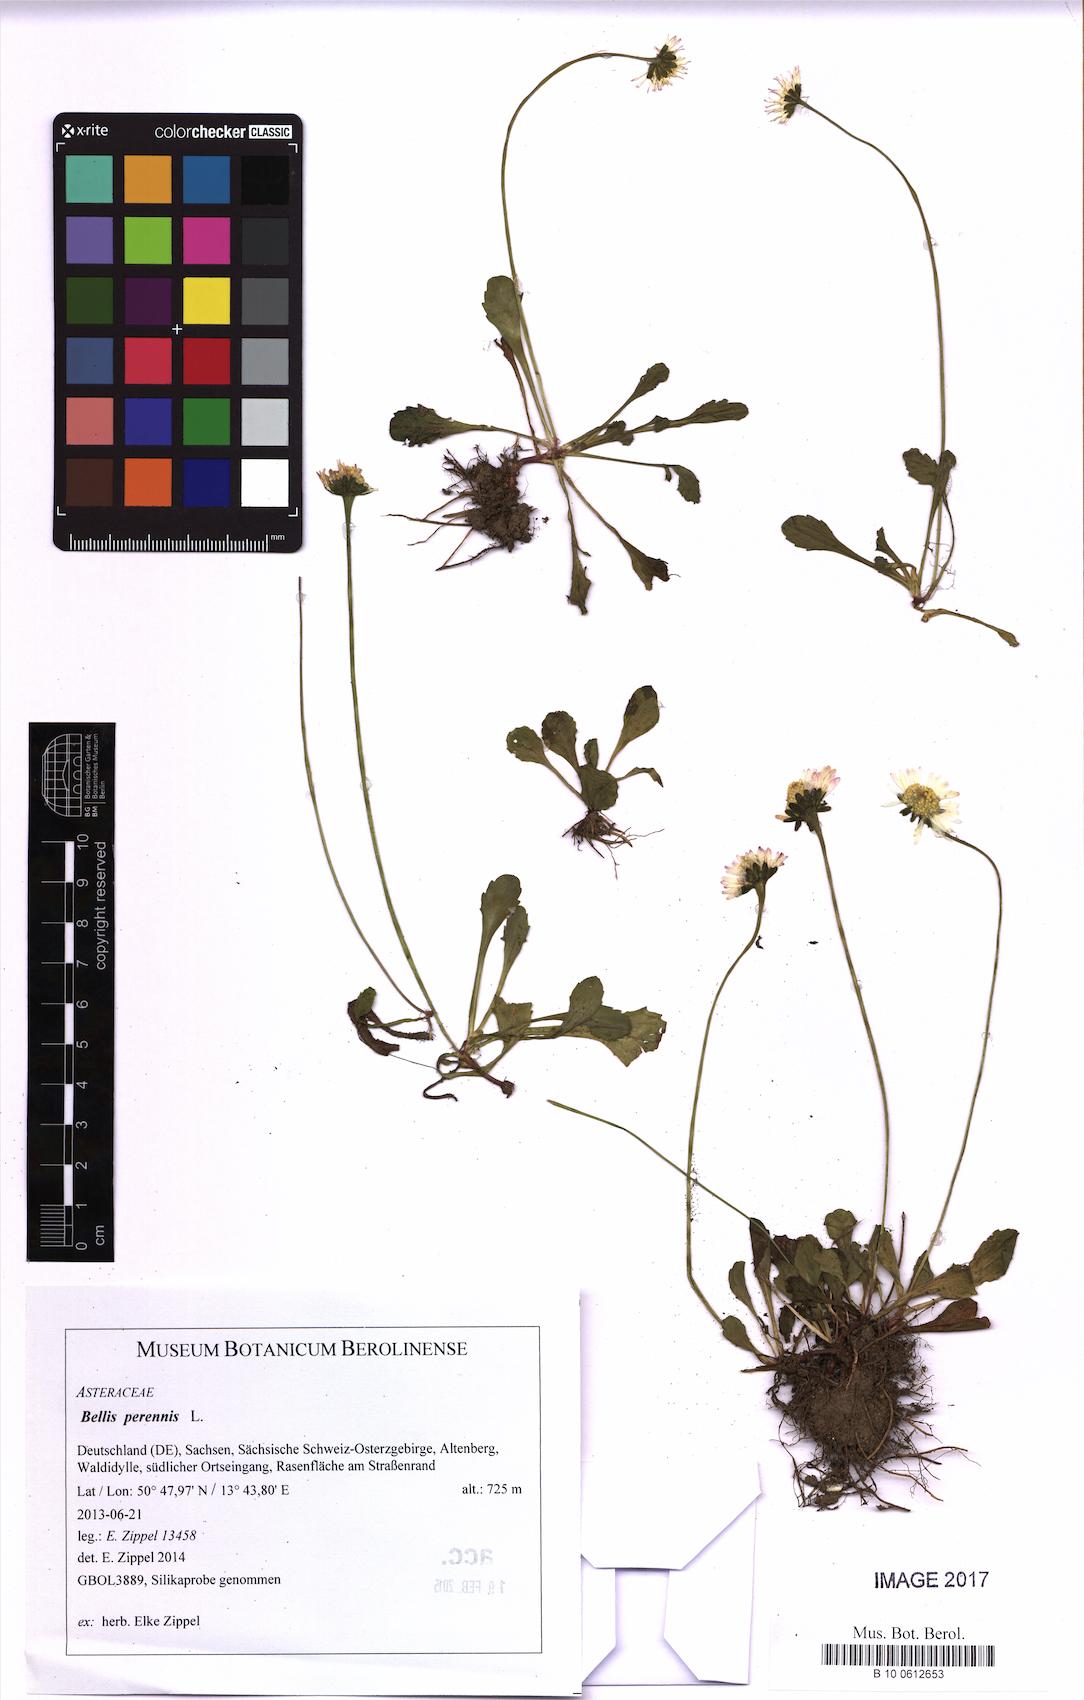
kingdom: Plantae
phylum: Tracheophyta
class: Magnoliopsida
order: Asterales
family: Asteraceae
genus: Bellis
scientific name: Bellis perennis
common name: Lawndaisy
